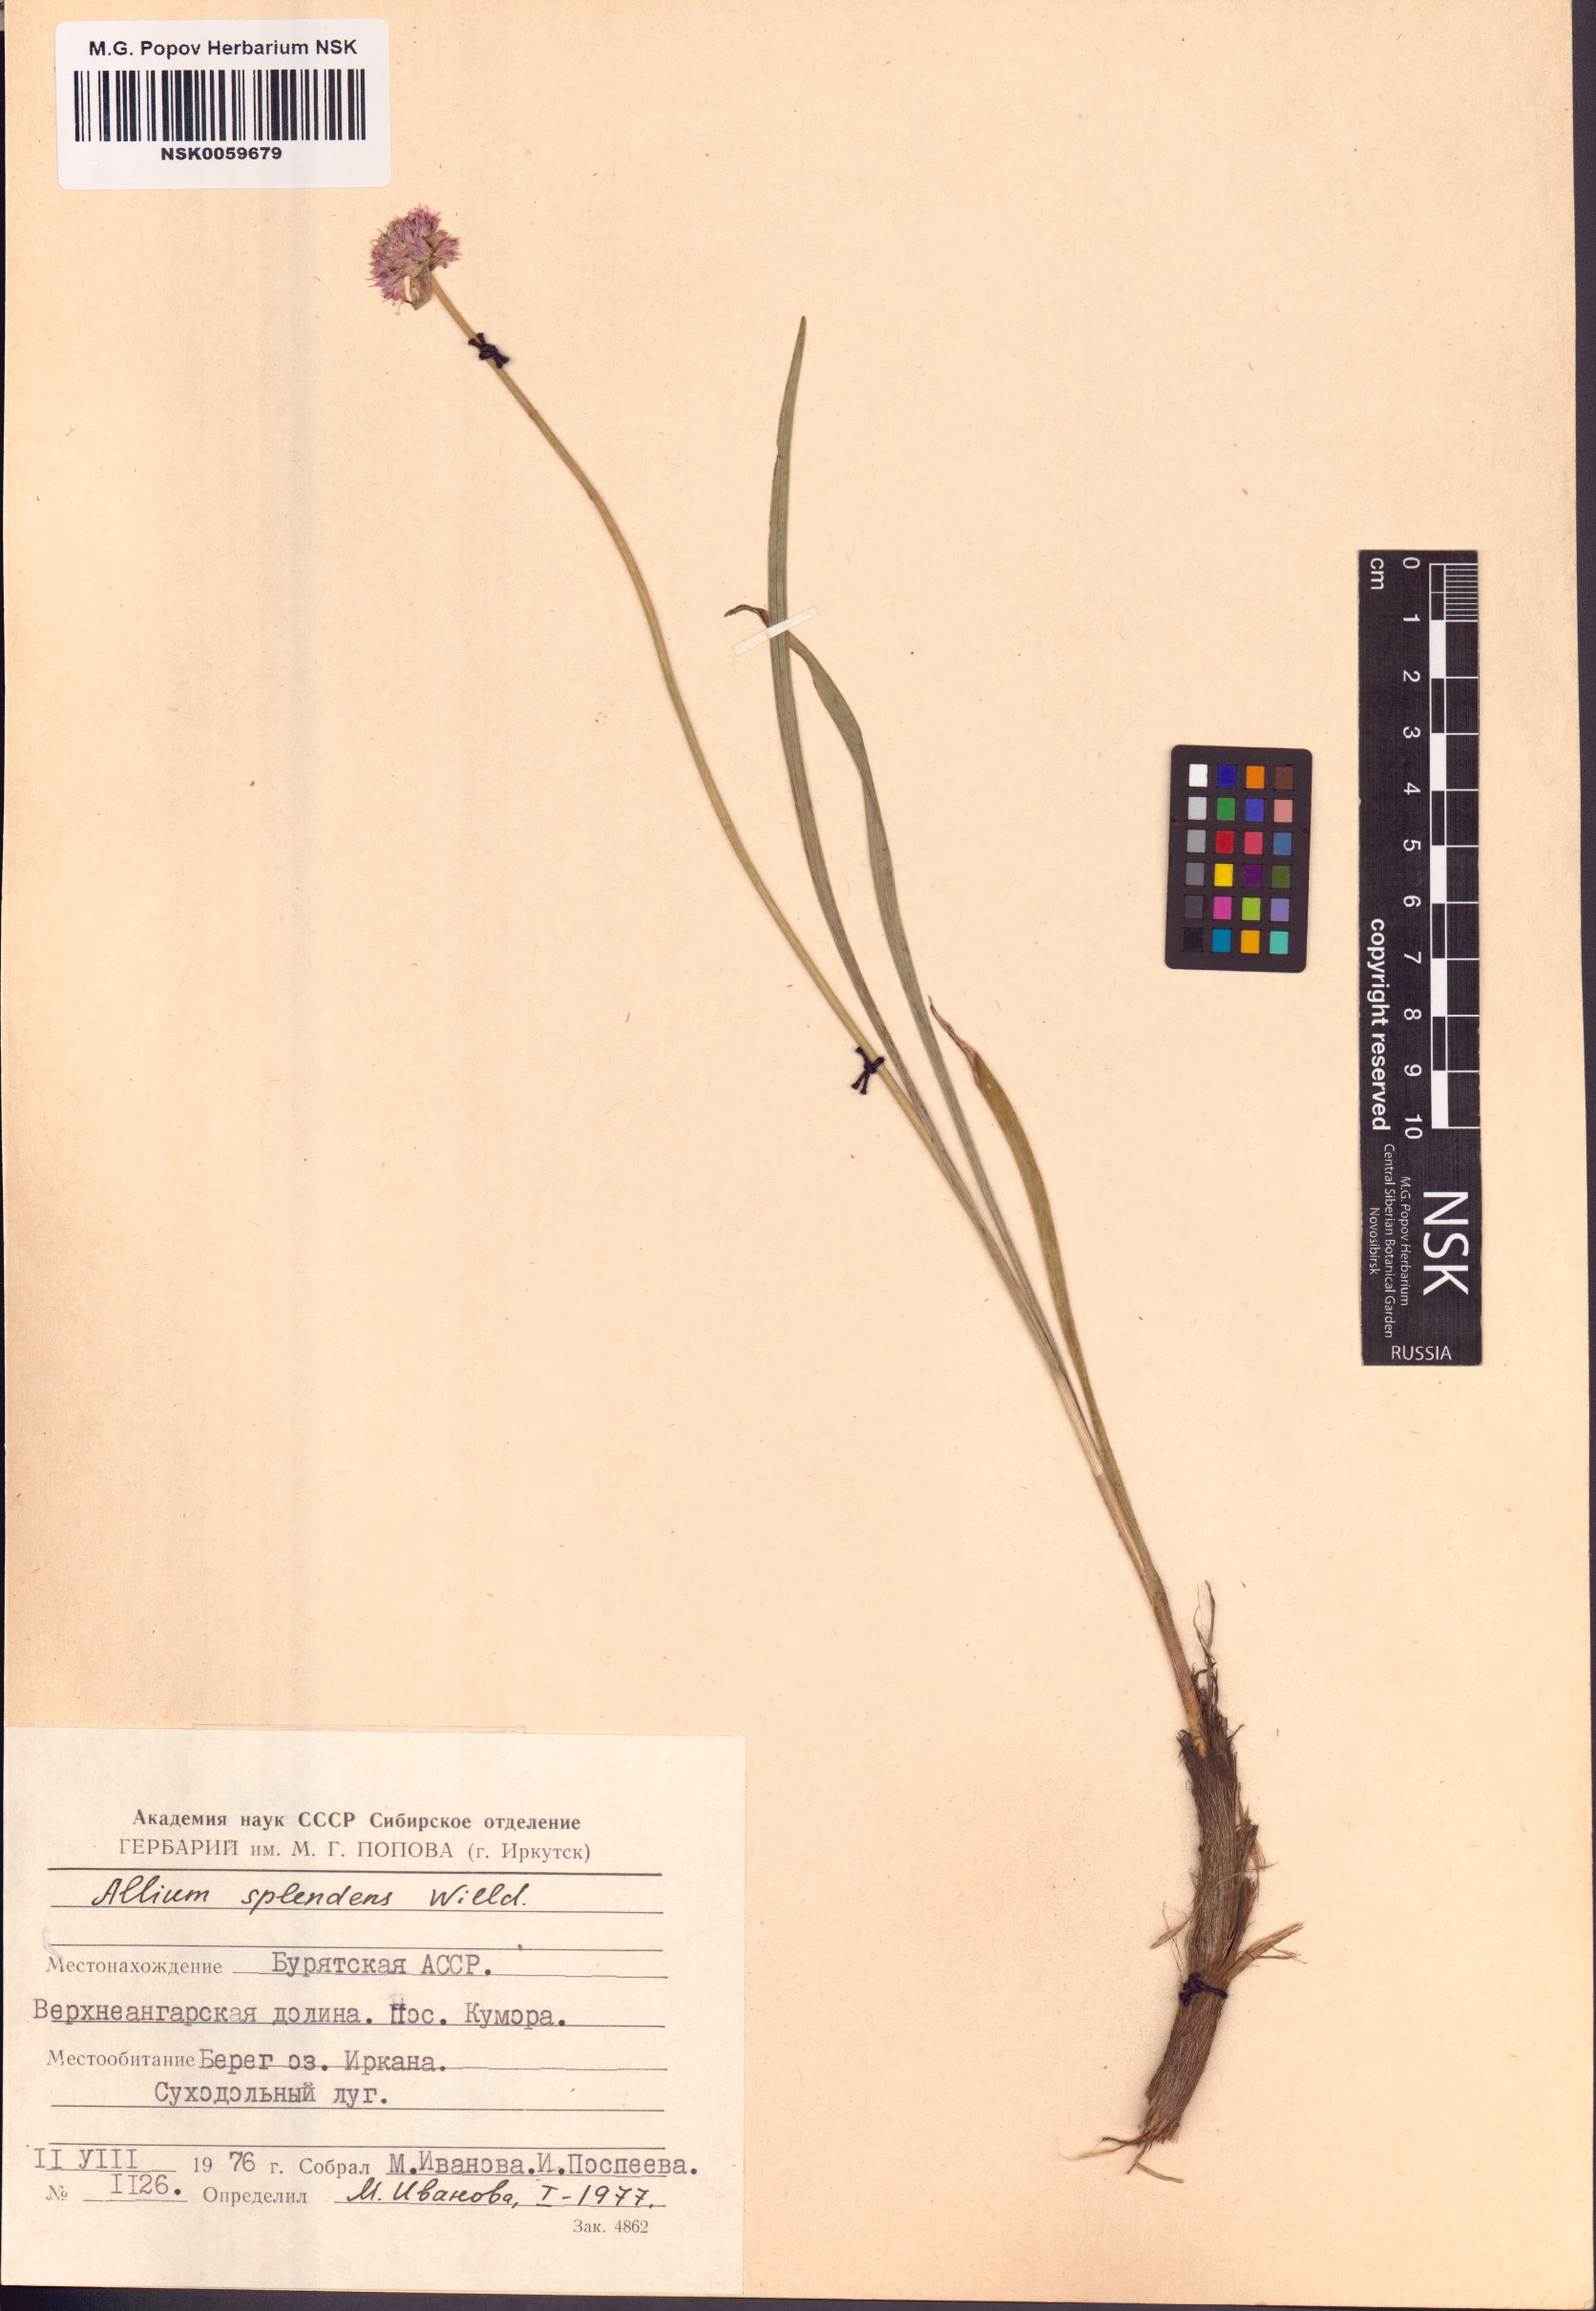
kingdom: Plantae
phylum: Tracheophyta
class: Liliopsida
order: Asparagales
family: Amaryllidaceae
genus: Allium
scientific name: Allium splendens
